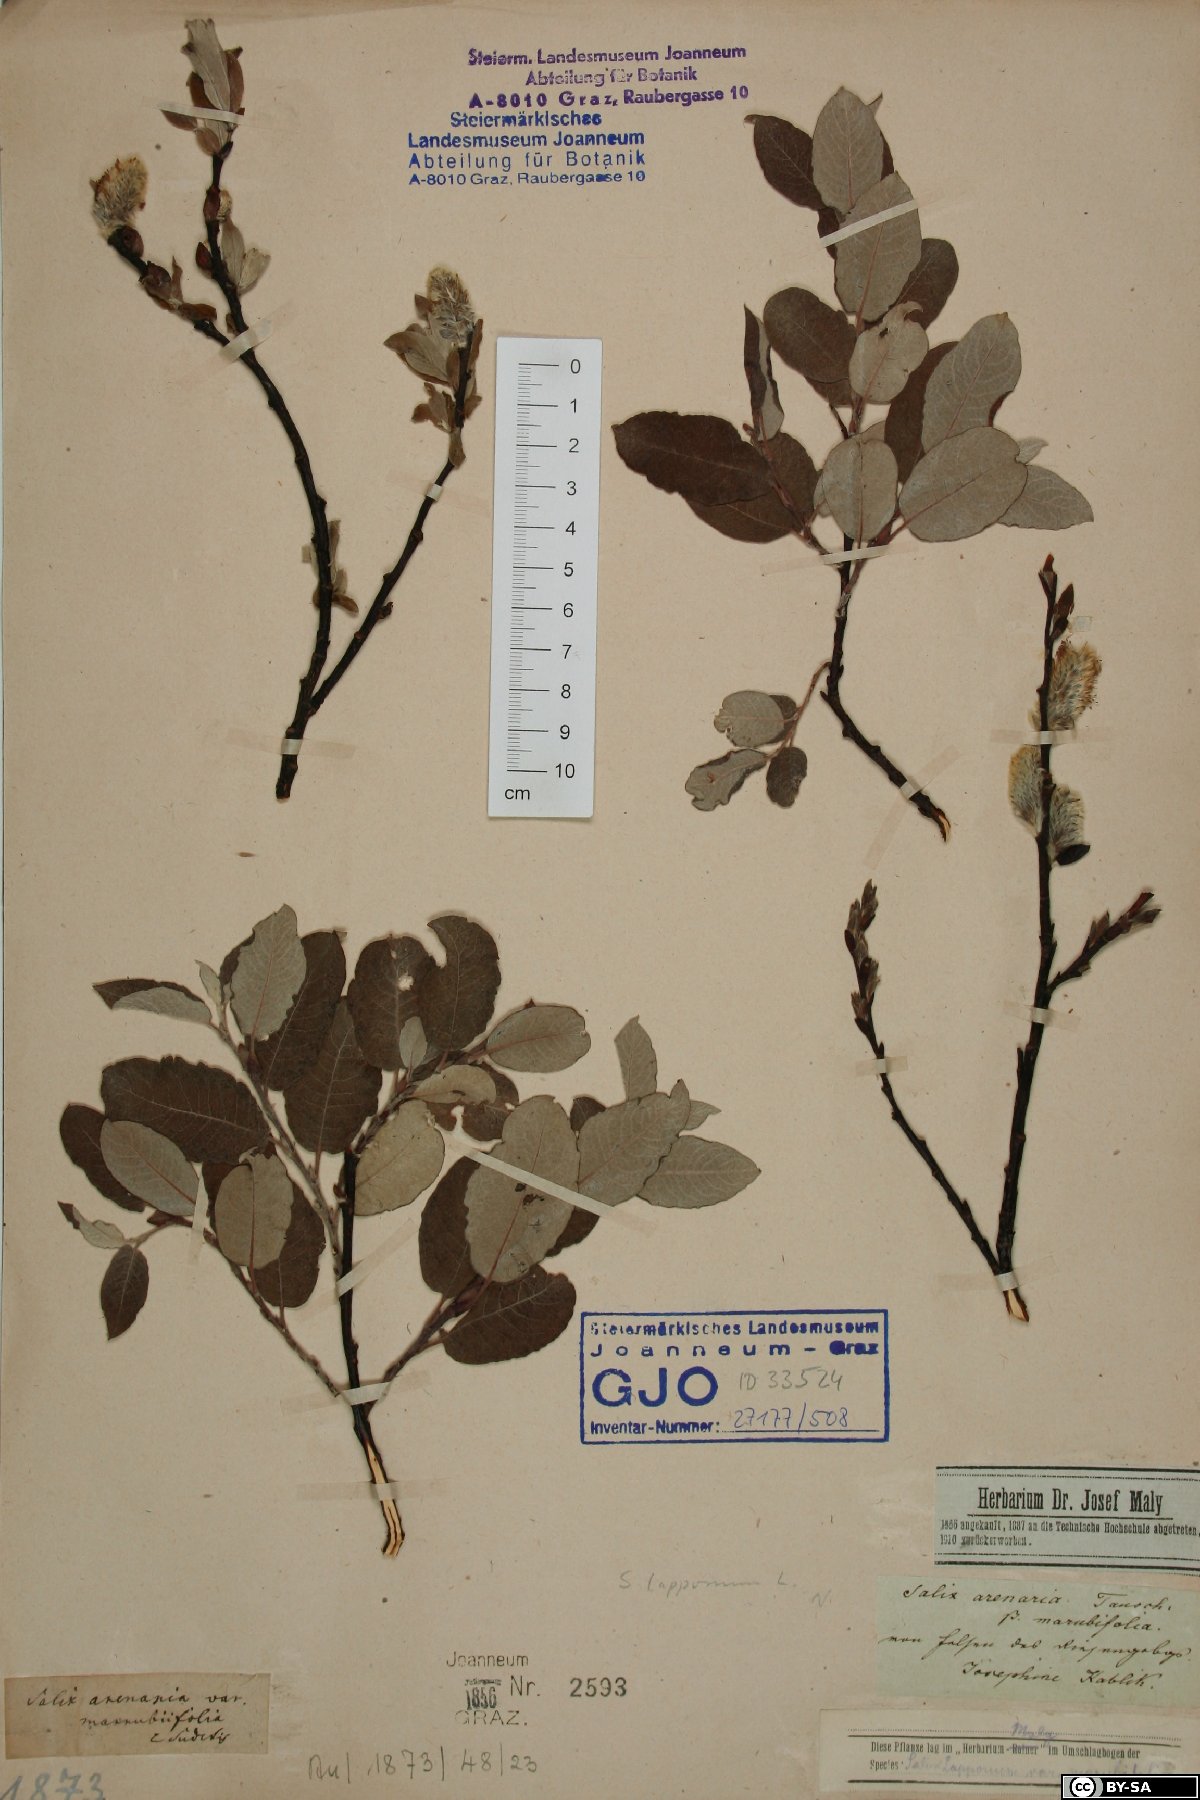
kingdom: Plantae
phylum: Tracheophyta
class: Magnoliopsida
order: Malpighiales
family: Salicaceae
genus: Salix
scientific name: Salix lapponum
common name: Downy willow
